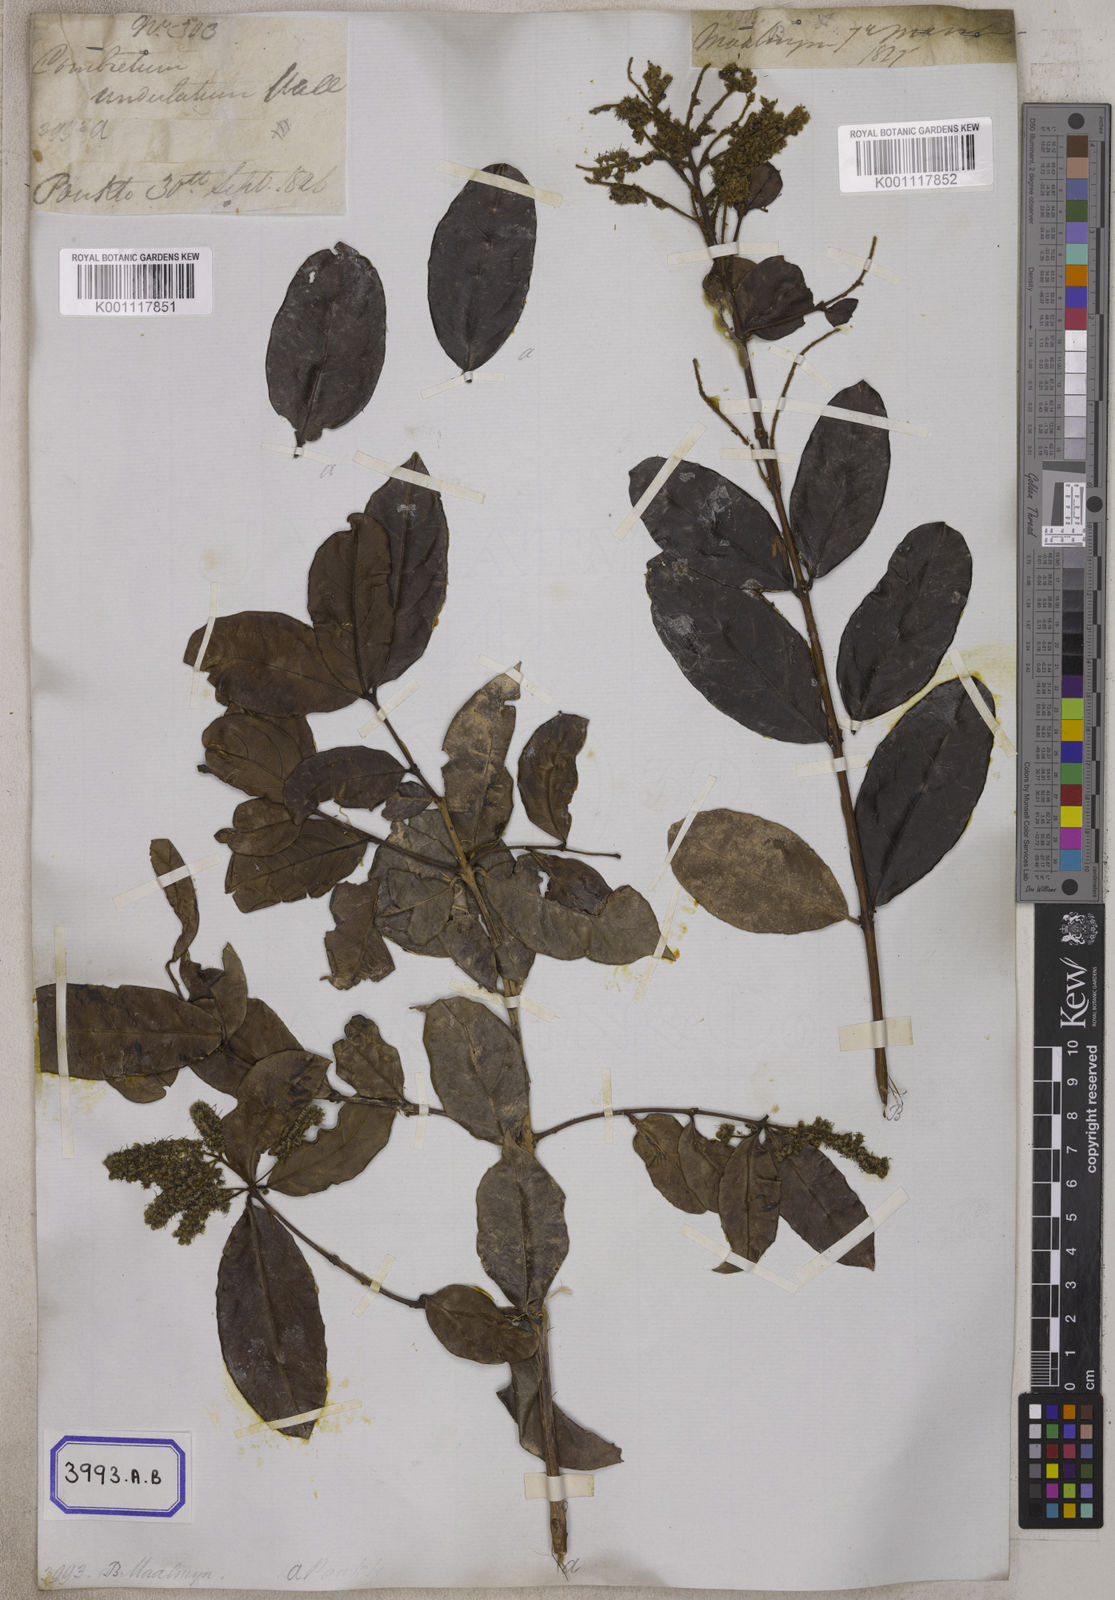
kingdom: Plantae
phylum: Tracheophyta
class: Magnoliopsida
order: Myrtales
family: Combretaceae
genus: Combretum
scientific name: Combretum trifoliatum
